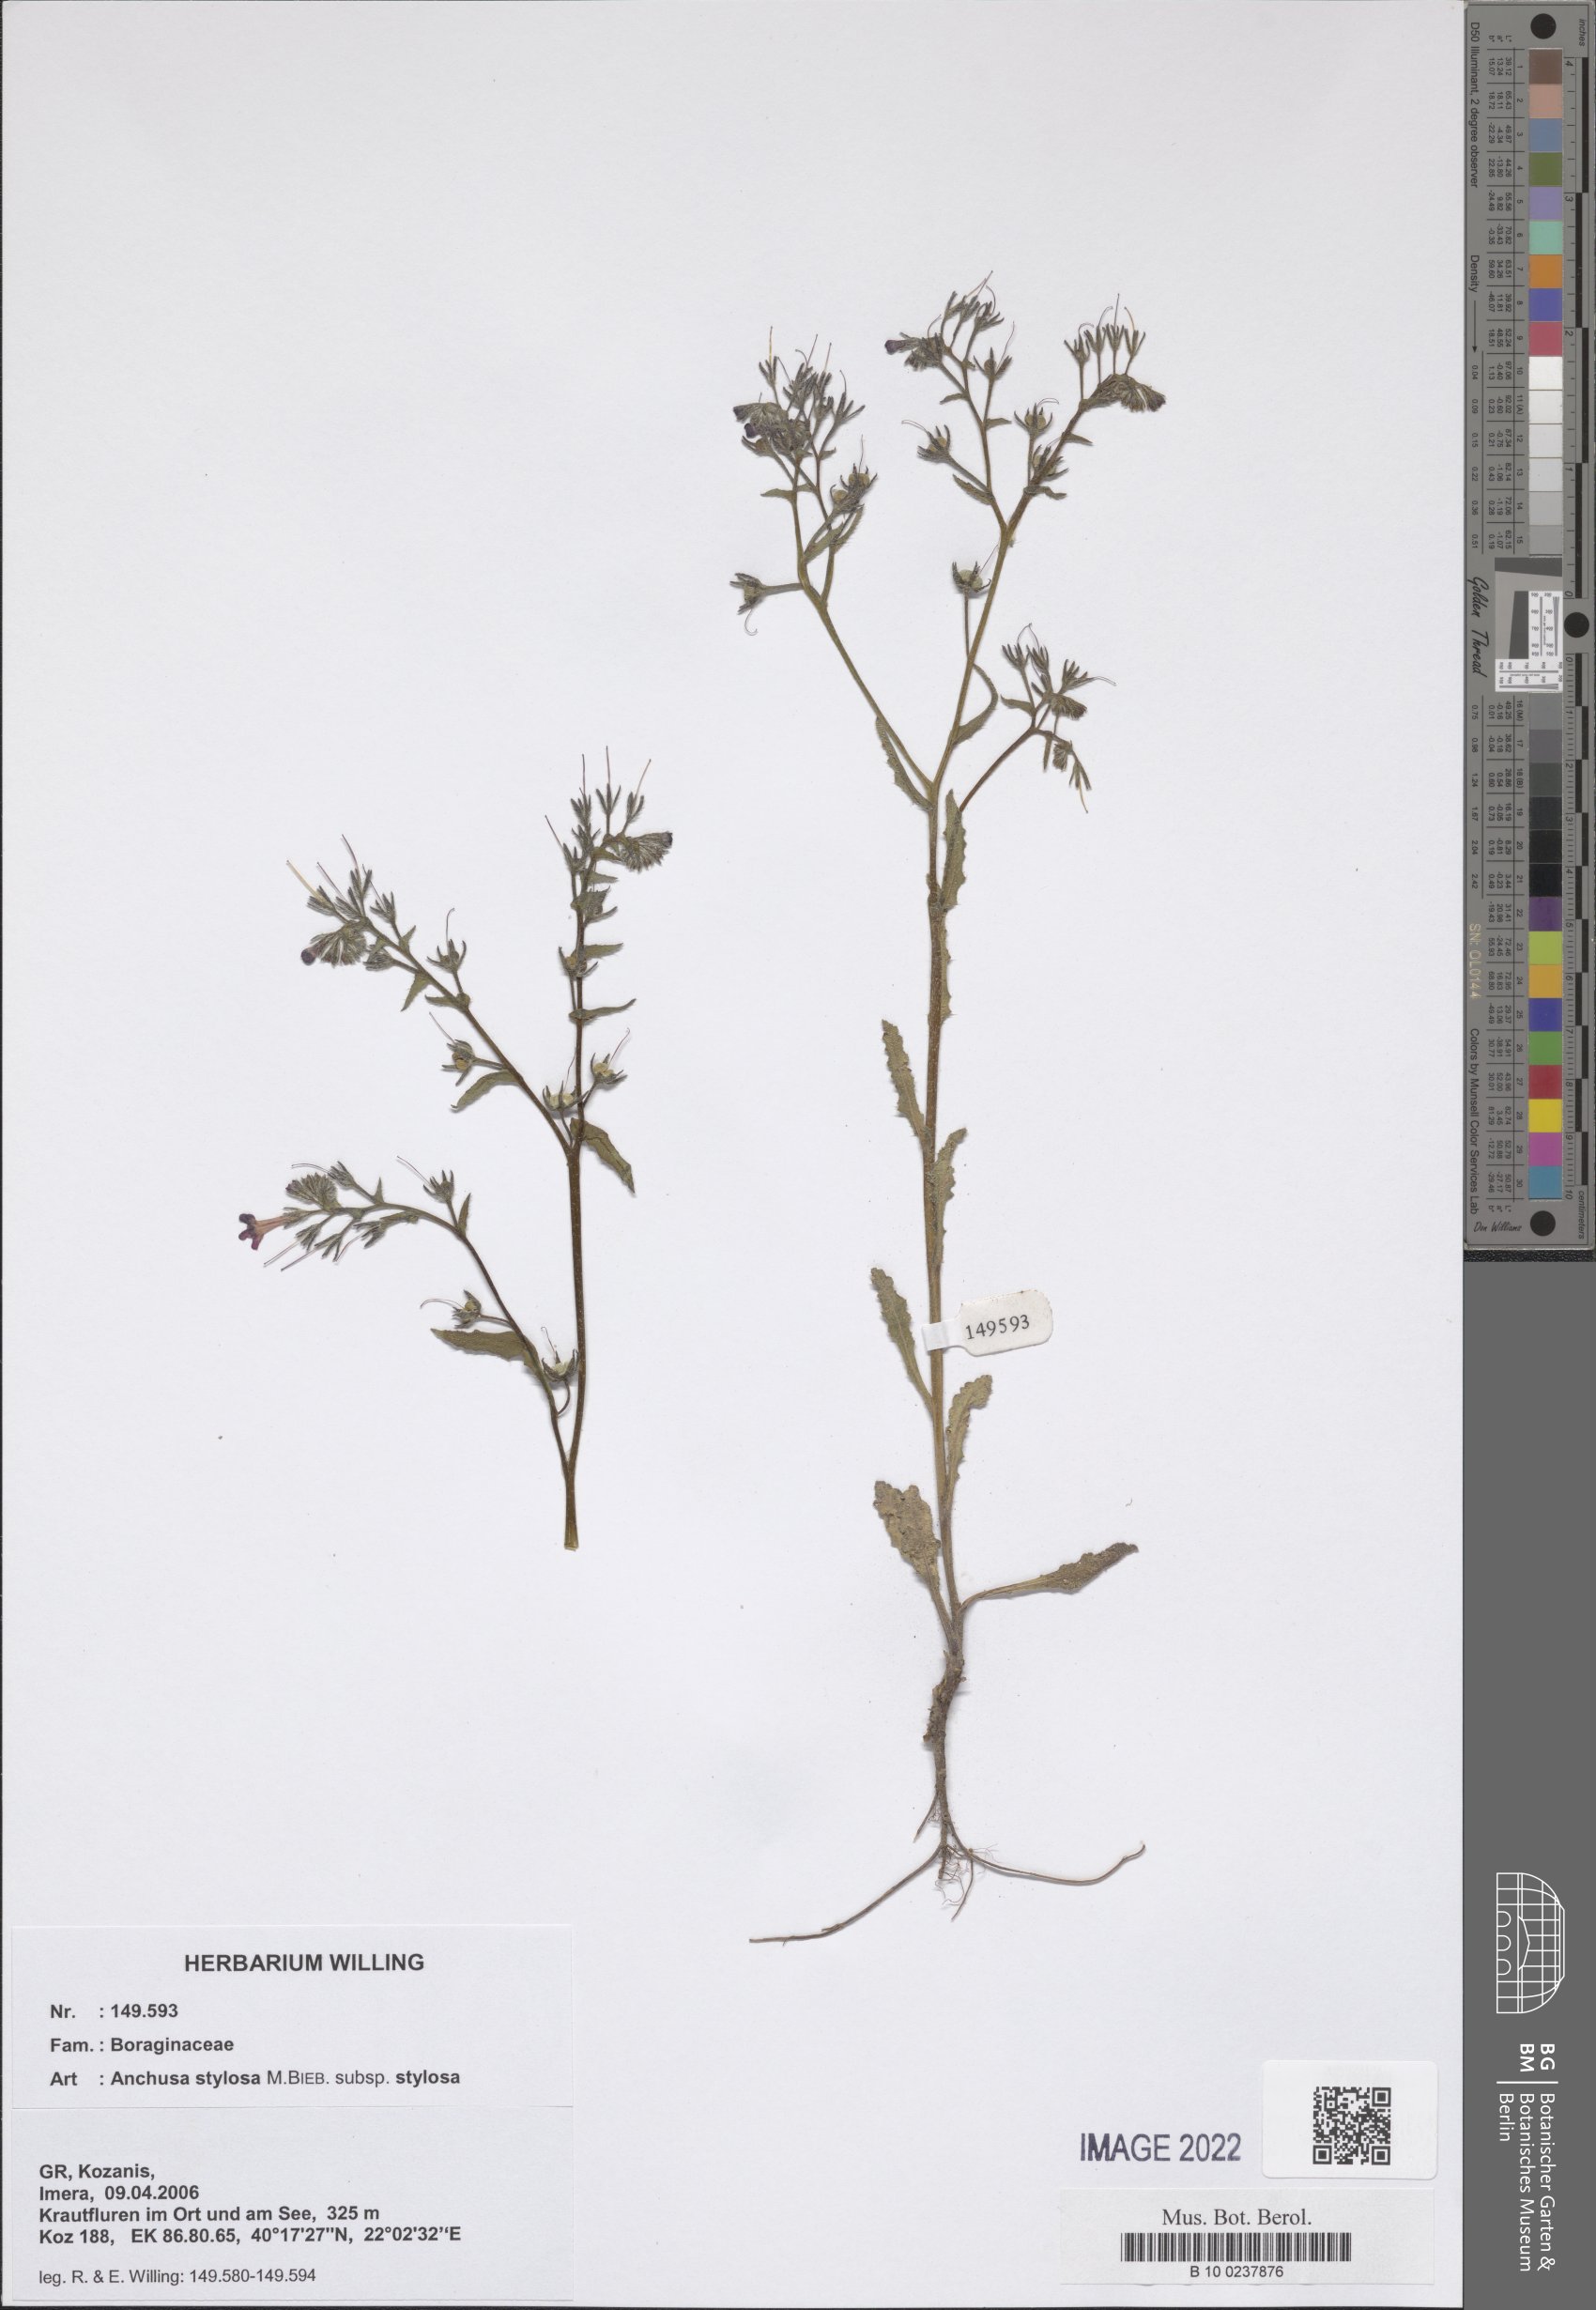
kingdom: Plantae
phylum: Tracheophyta
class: Magnoliopsida
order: Boraginales
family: Boraginaceae
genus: Anchusa
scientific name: Anchusa stylosa
